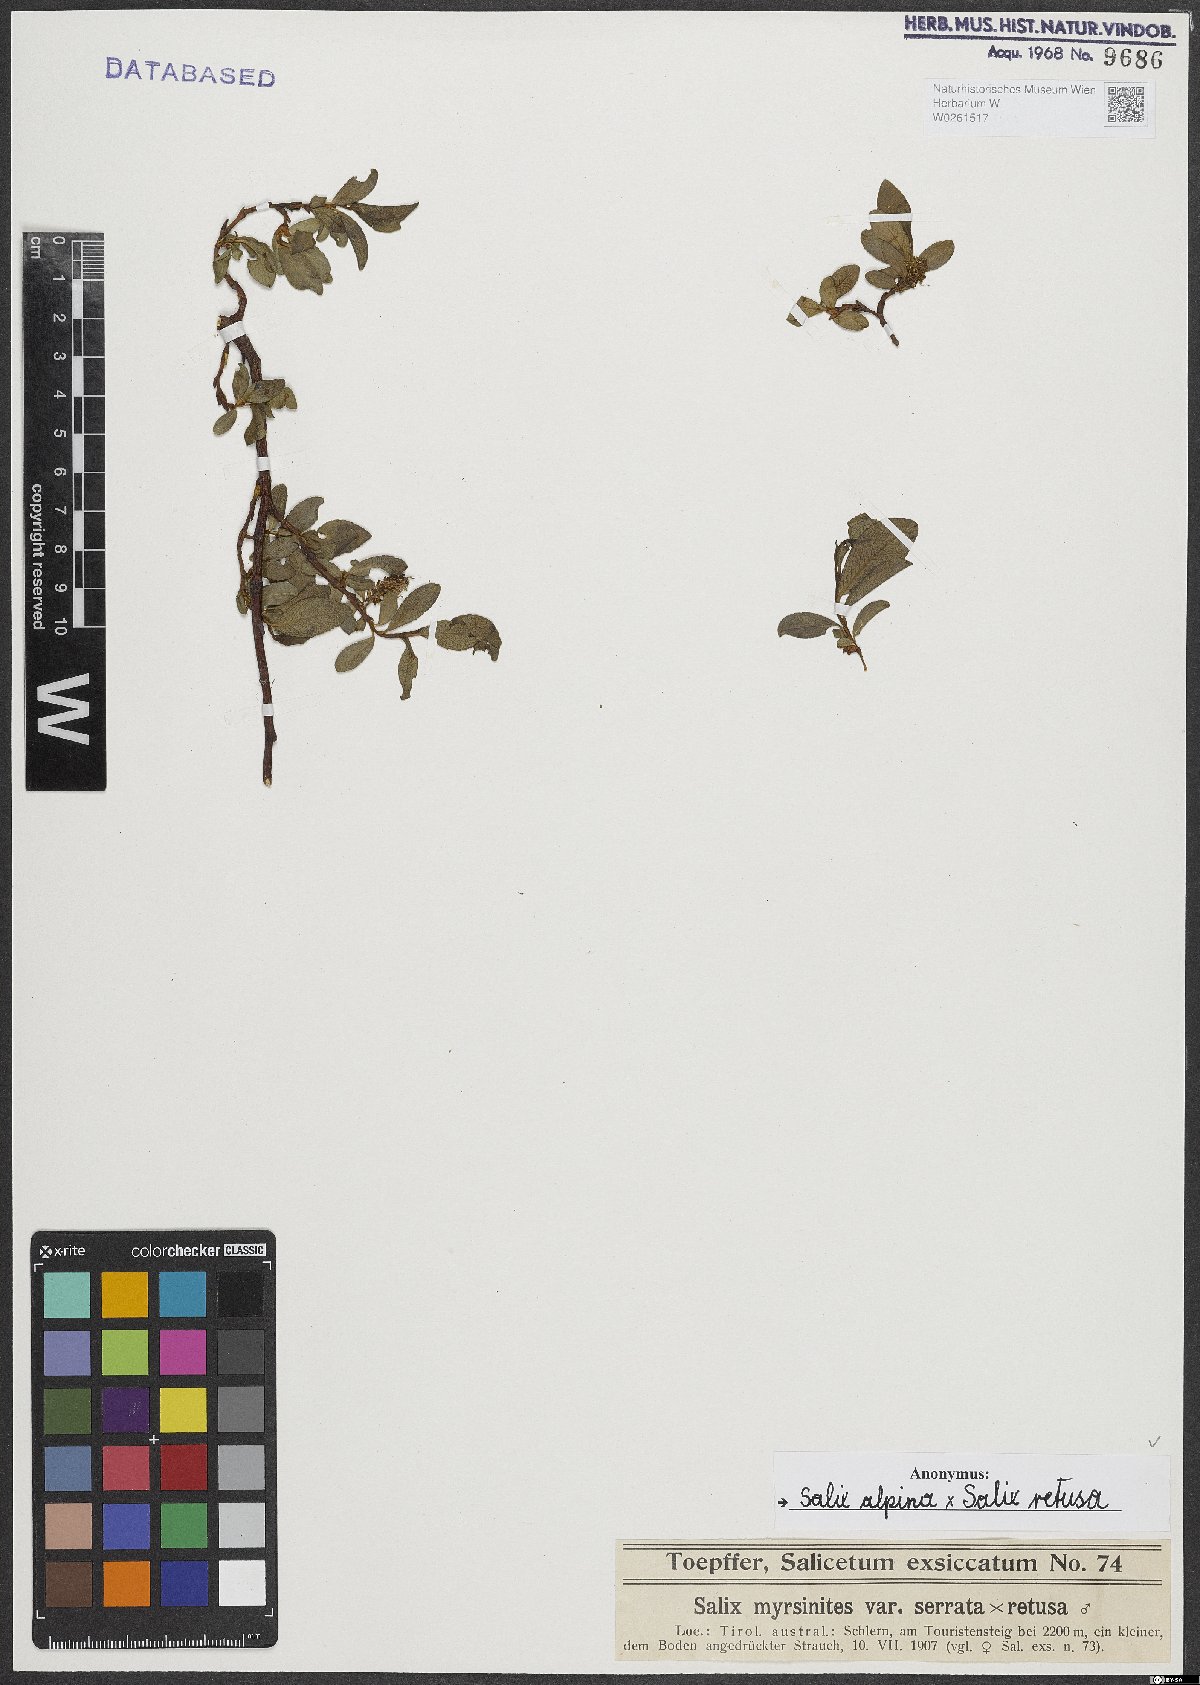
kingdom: Plantae
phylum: Tracheophyta
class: Magnoliopsida
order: Malpighiales
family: Salicaceae
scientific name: Salicaceae
